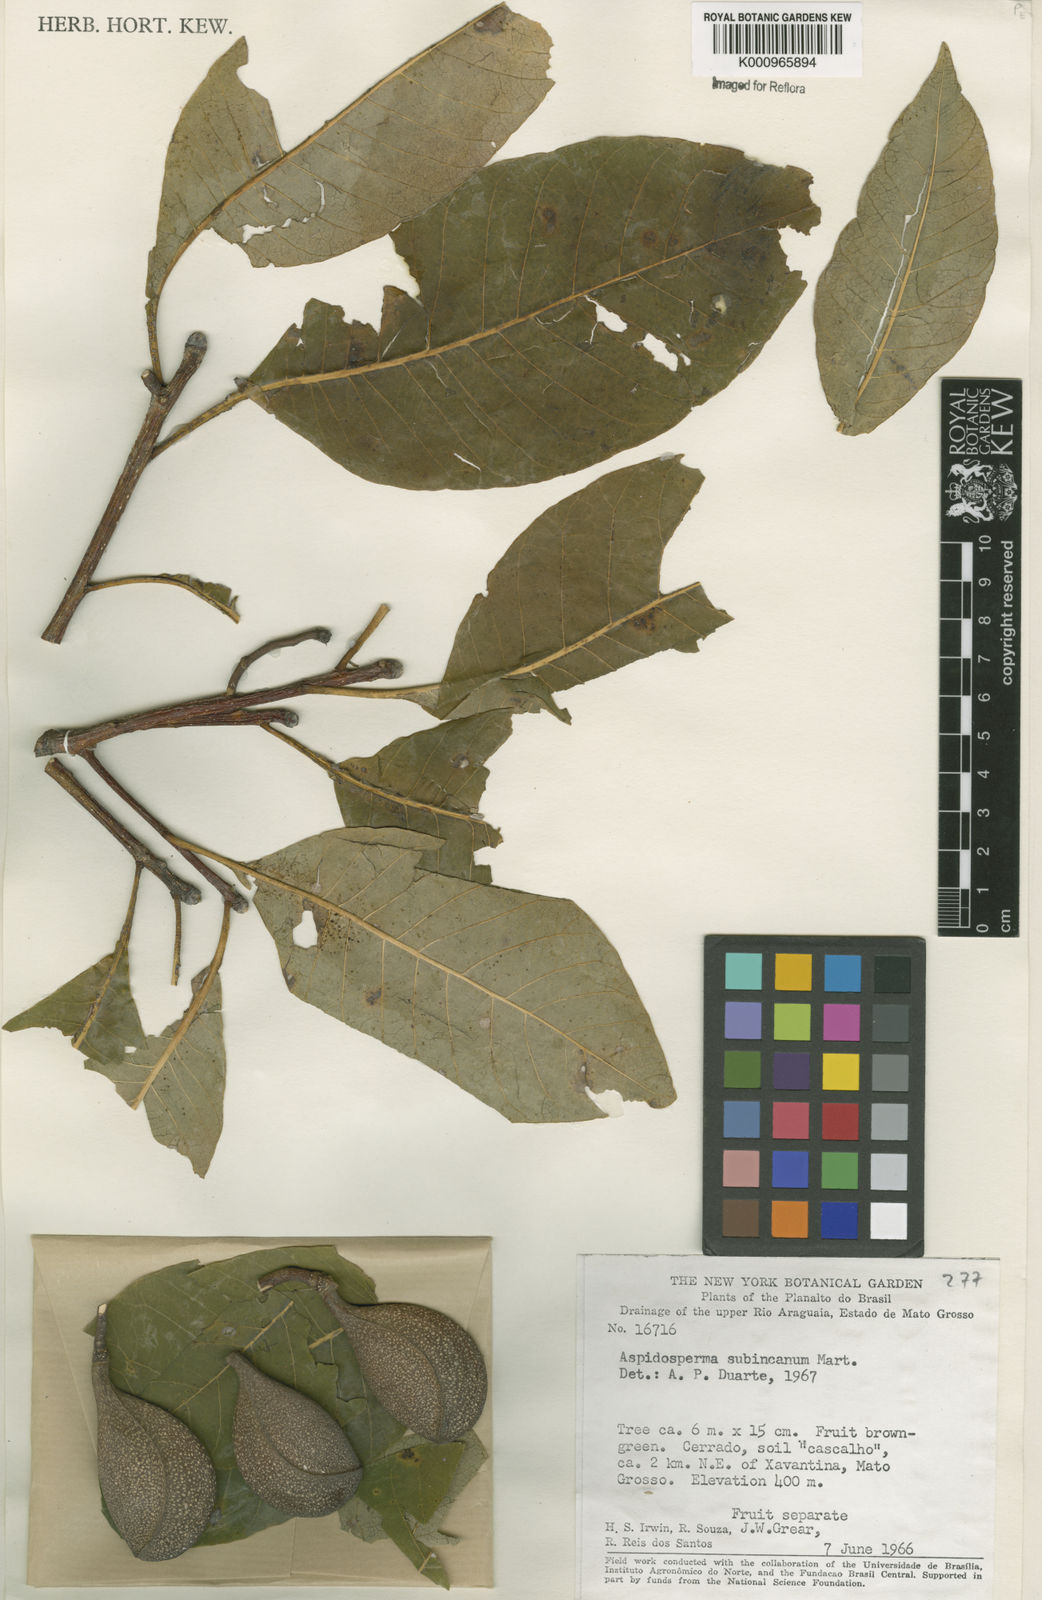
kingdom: Plantae
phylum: Tracheophyta
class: Magnoliopsida
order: Gentianales
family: Apocynaceae
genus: Aspidosperma
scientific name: Aspidosperma subincanum
